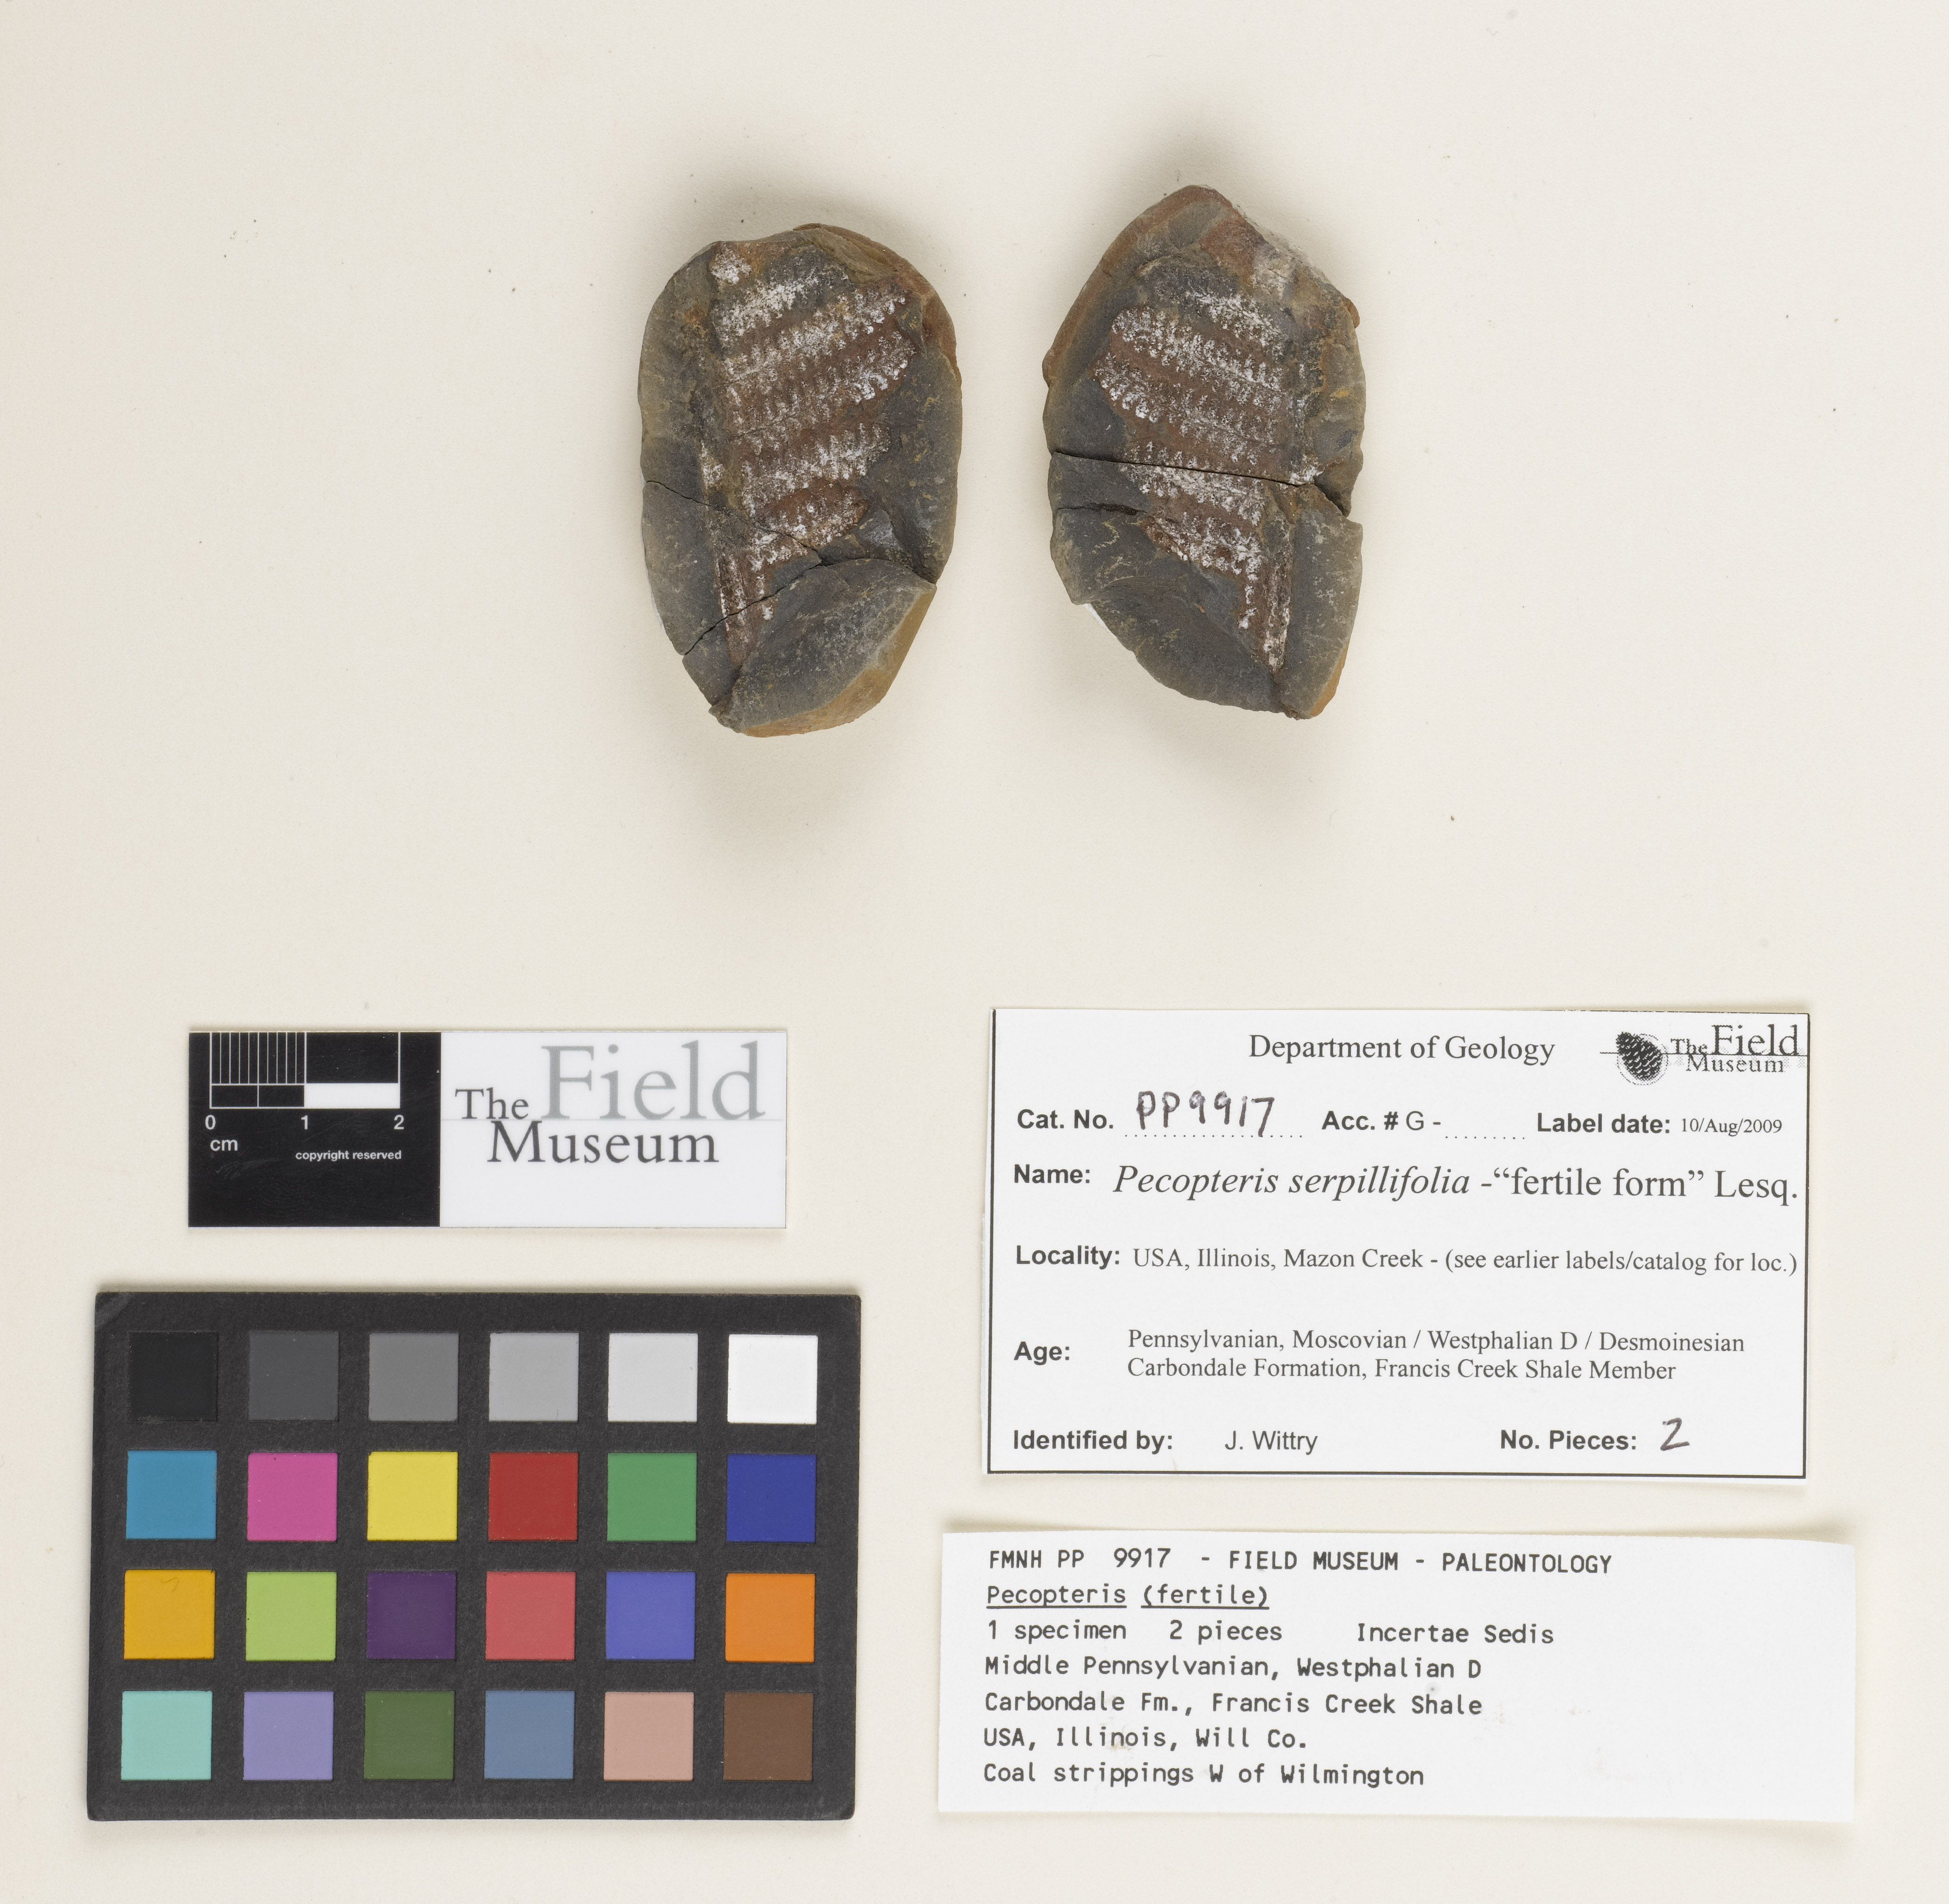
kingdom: Plantae
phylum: Tracheophyta
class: Polypodiopsida
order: Marattiales
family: Asterothecaceae
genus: Pecopteris
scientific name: Pecopteris
